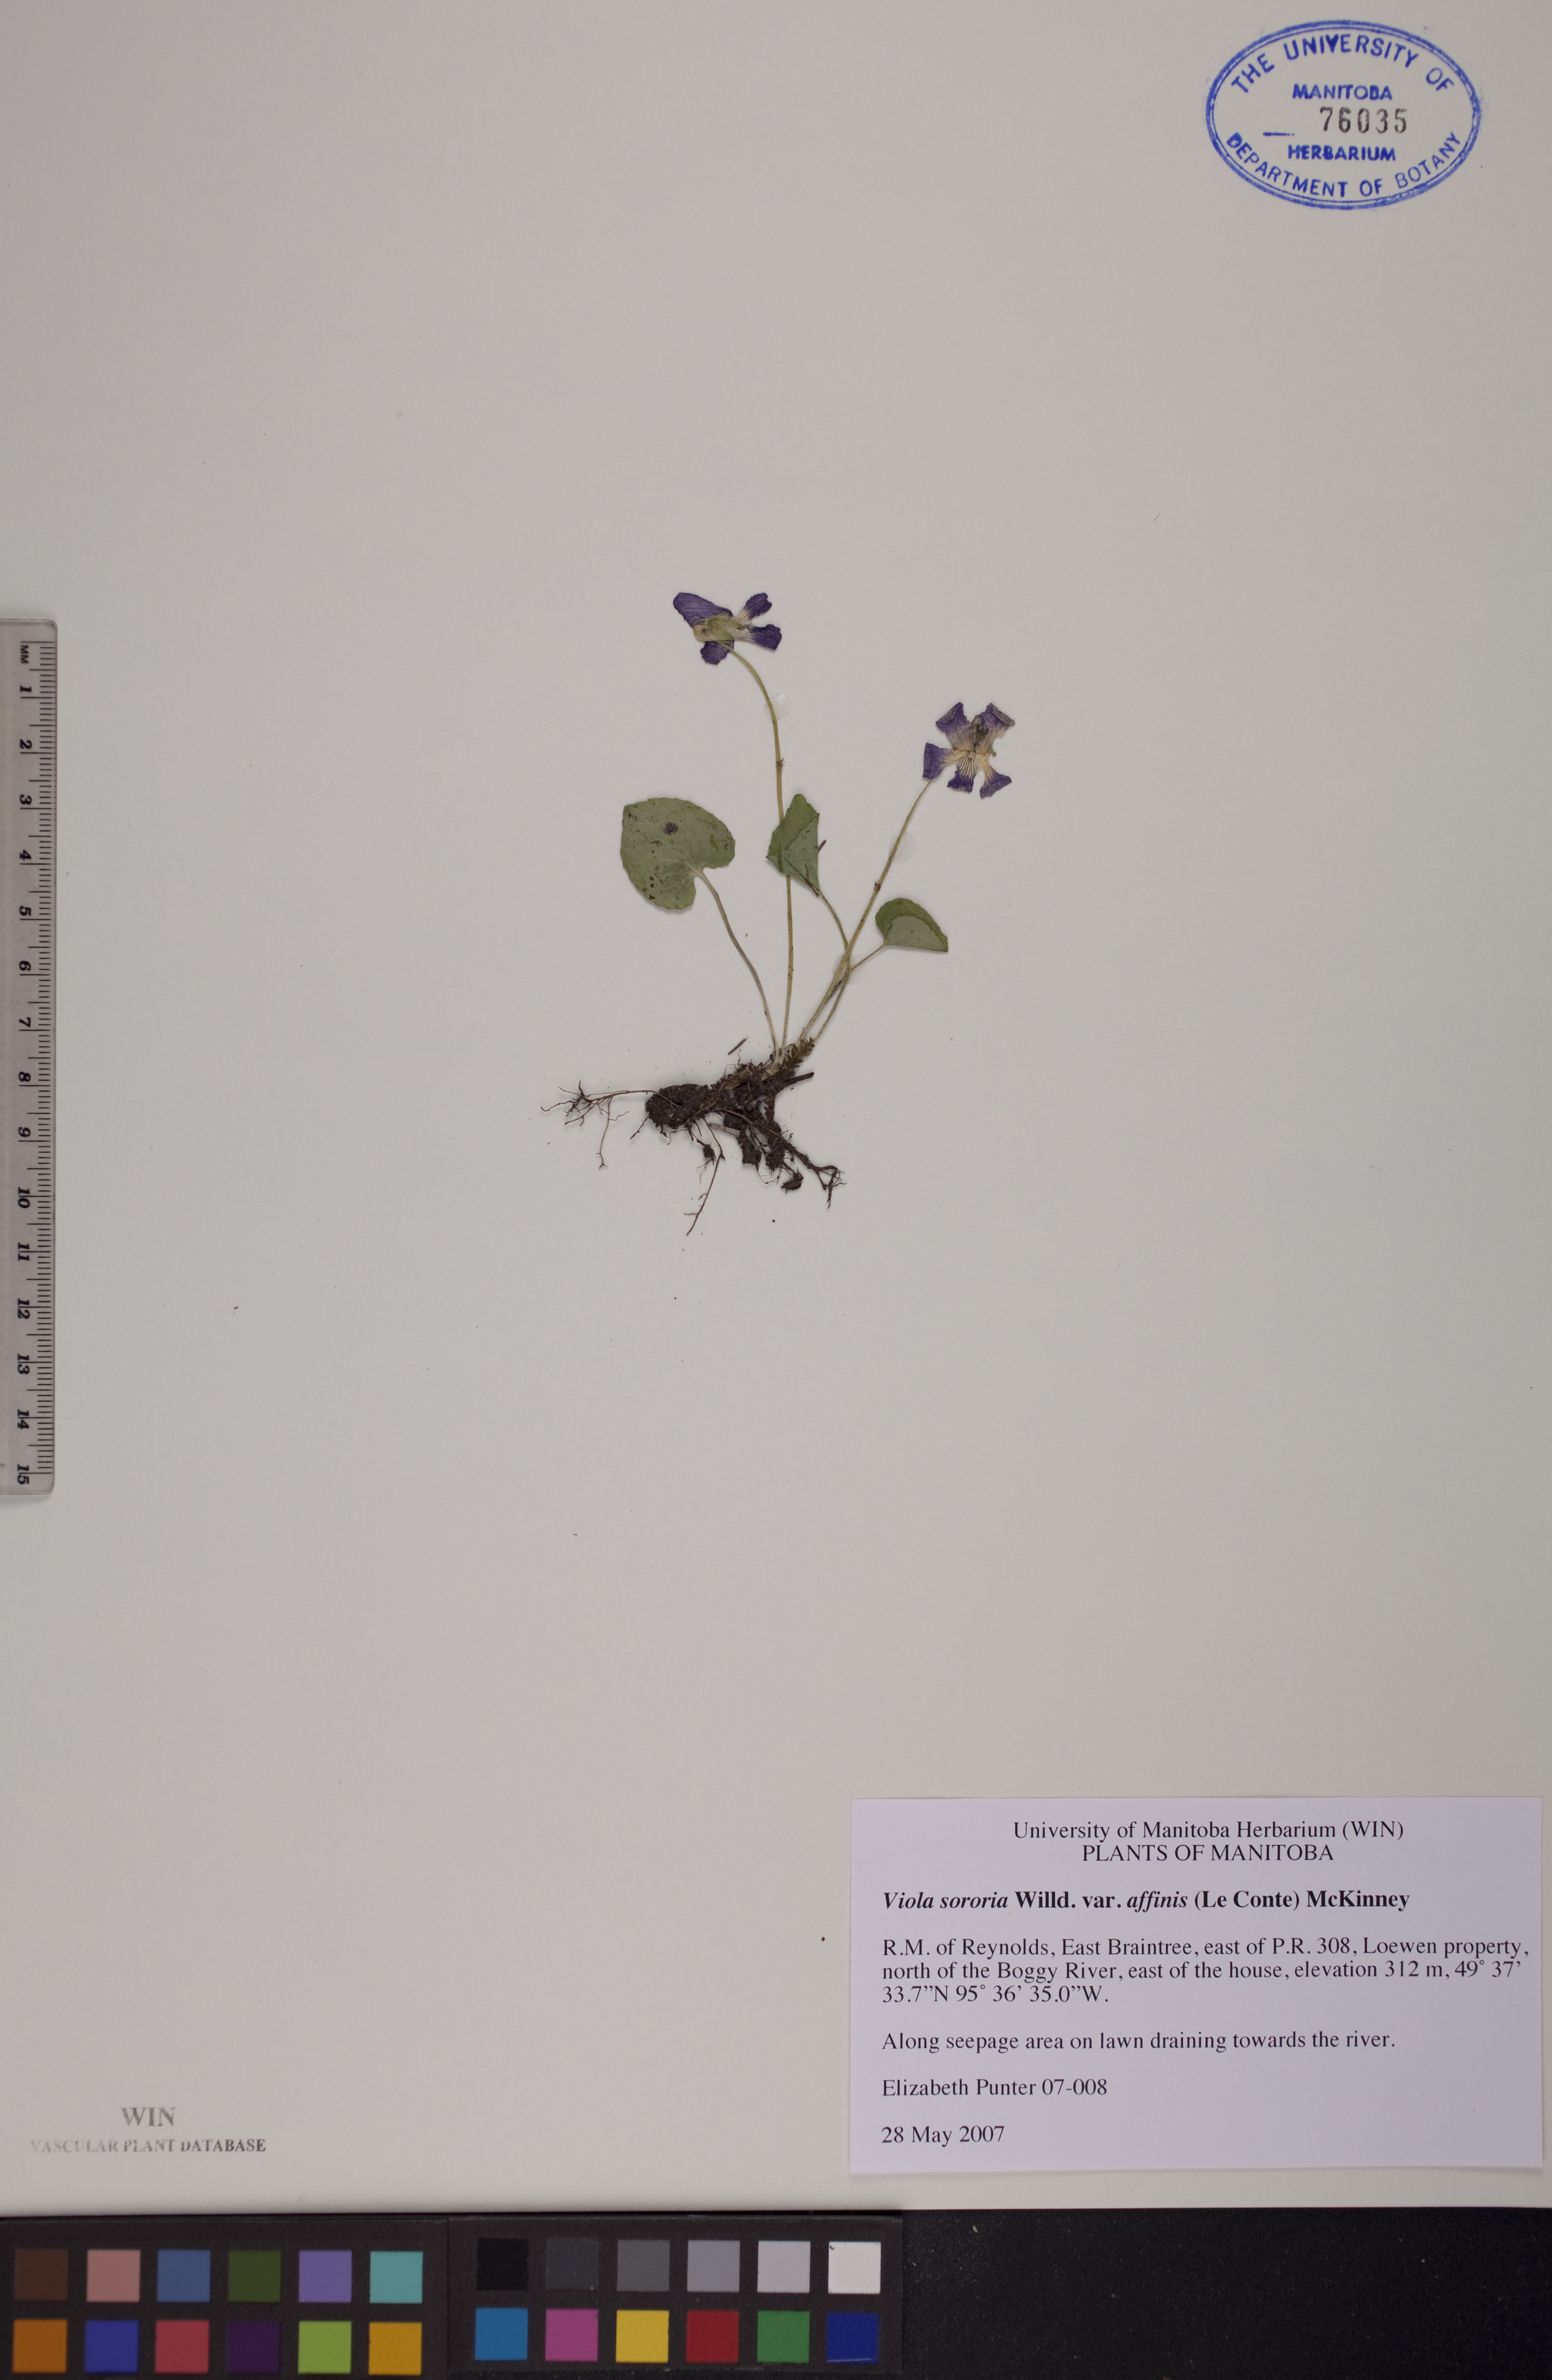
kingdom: Plantae
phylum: Tracheophyta
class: Magnoliopsida
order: Malpighiales
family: Violaceae
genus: Viola
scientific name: Viola affinis
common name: Leconte's violet
